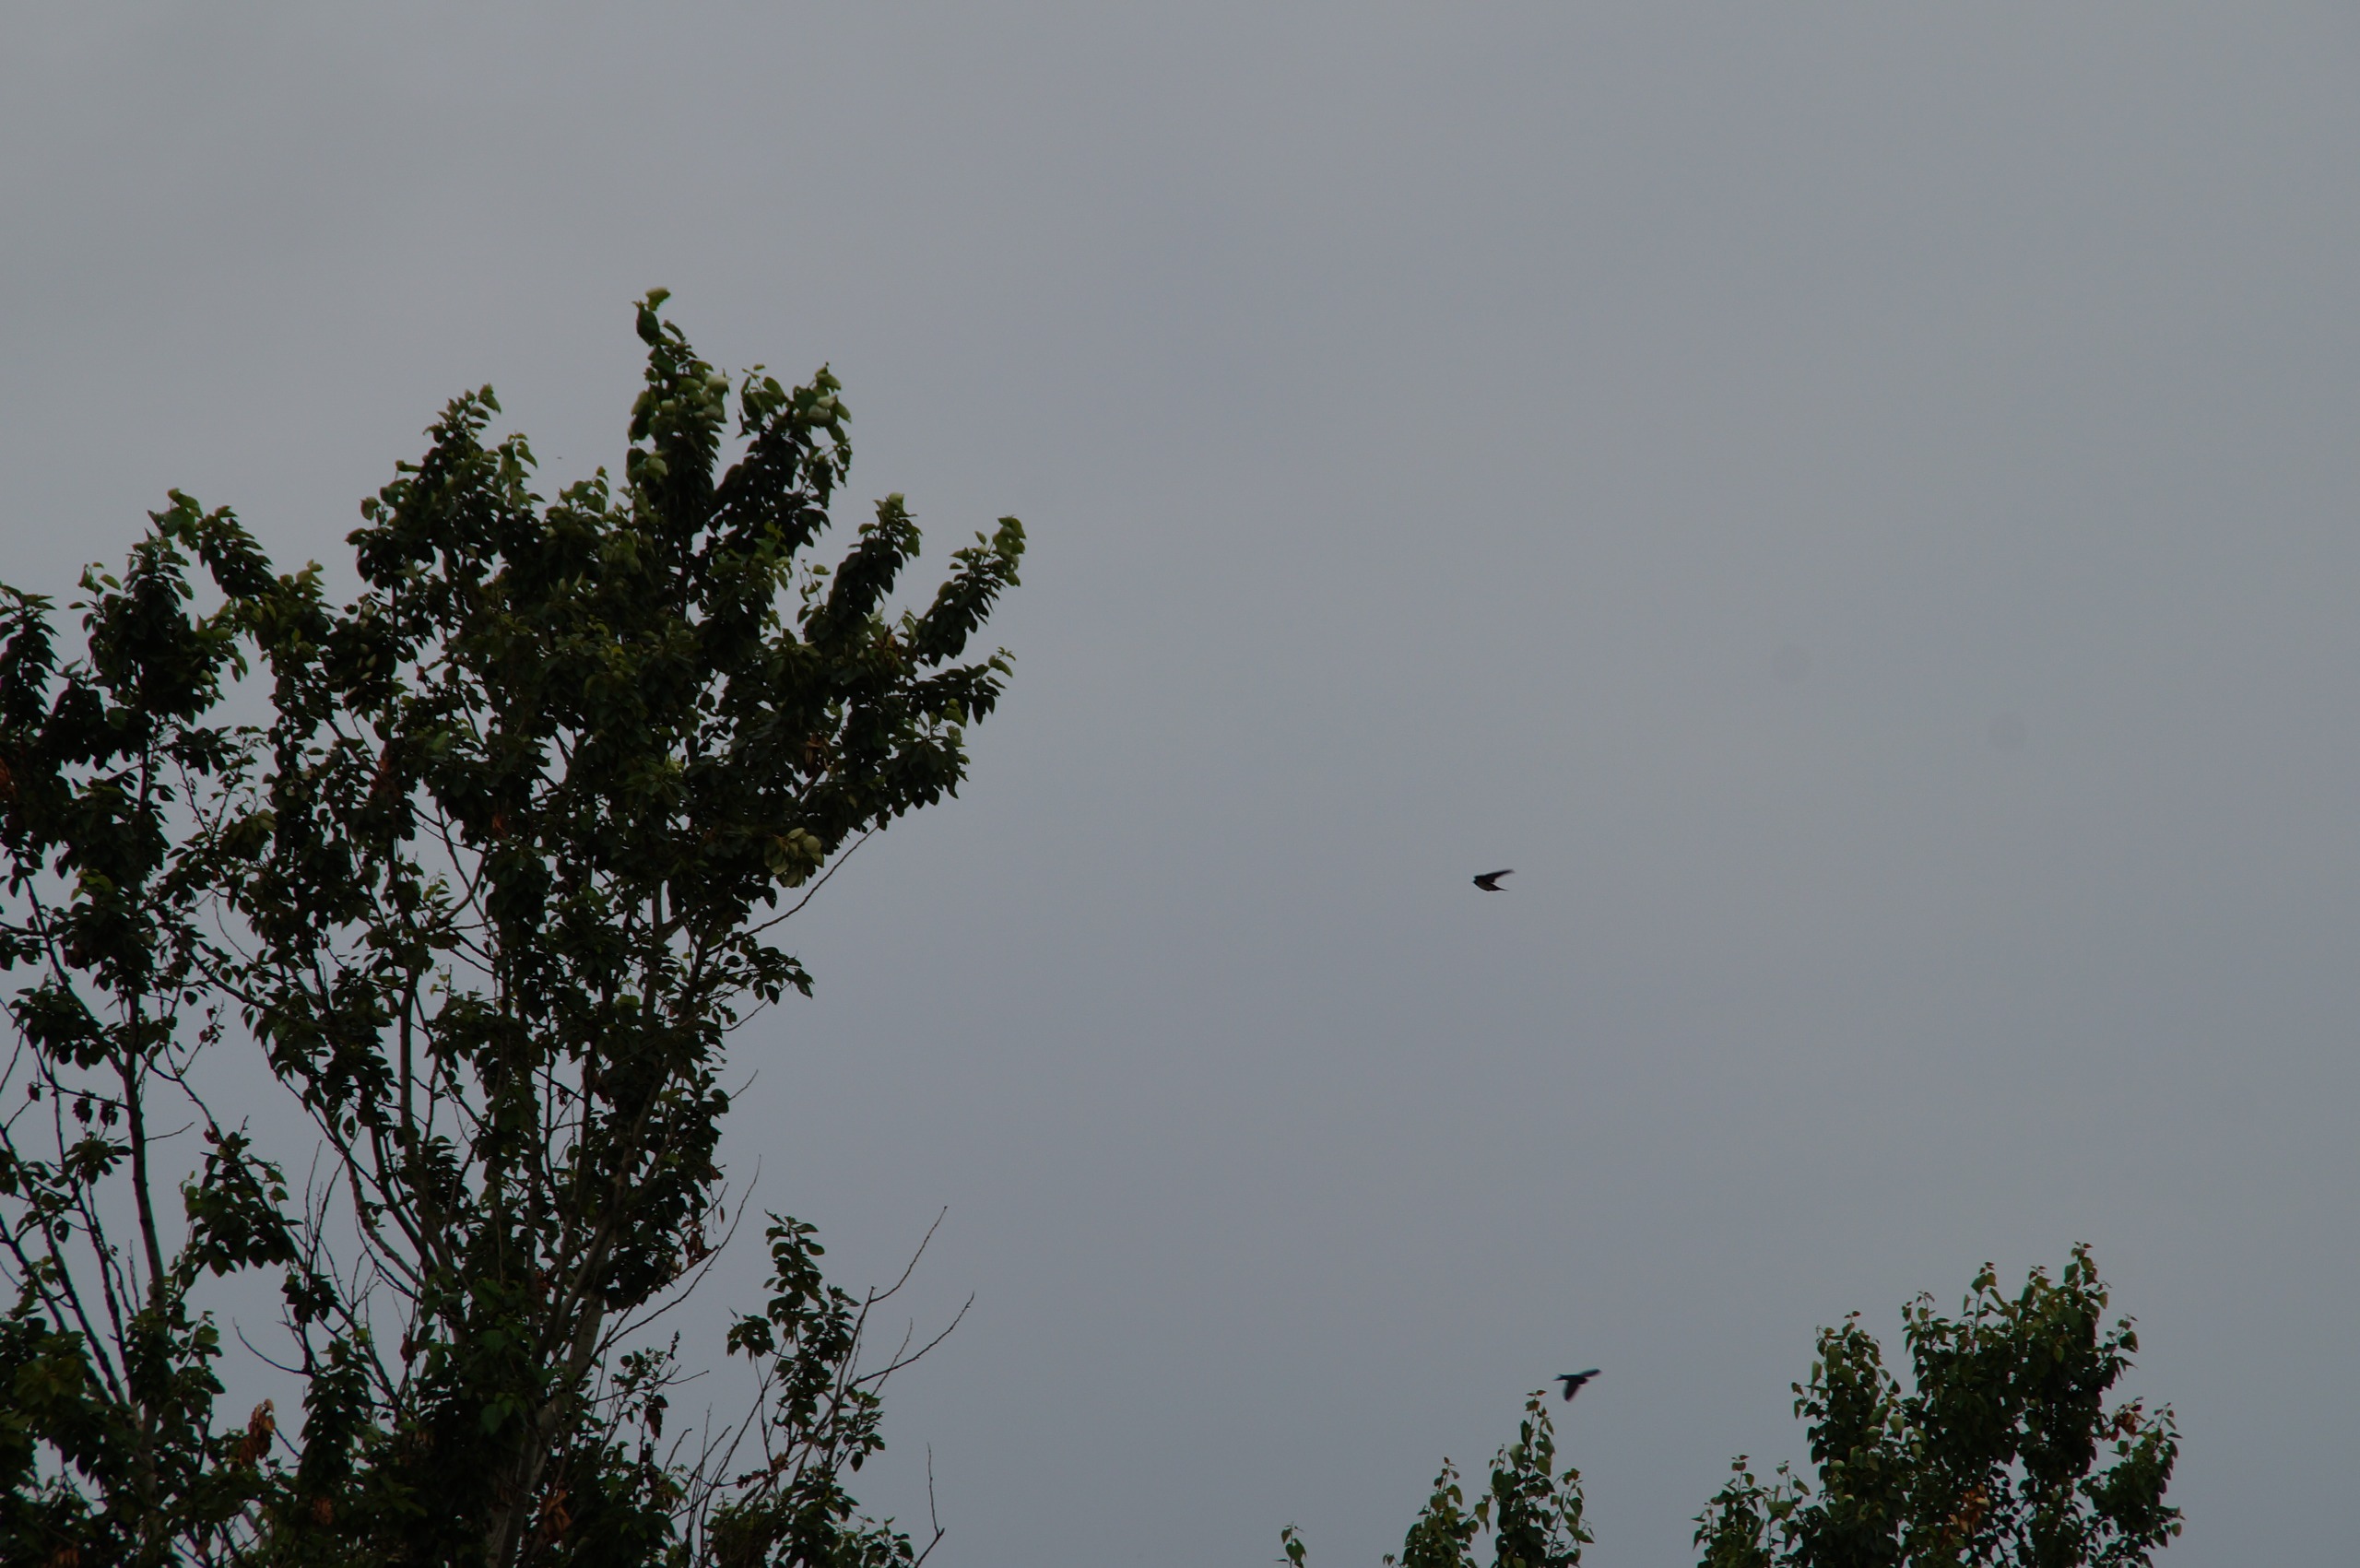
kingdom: Animalia
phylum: Chordata
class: Aves
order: Passeriformes
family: Hirundinidae
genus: Hirundo
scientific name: Hirundo rustica
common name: Landsvale
